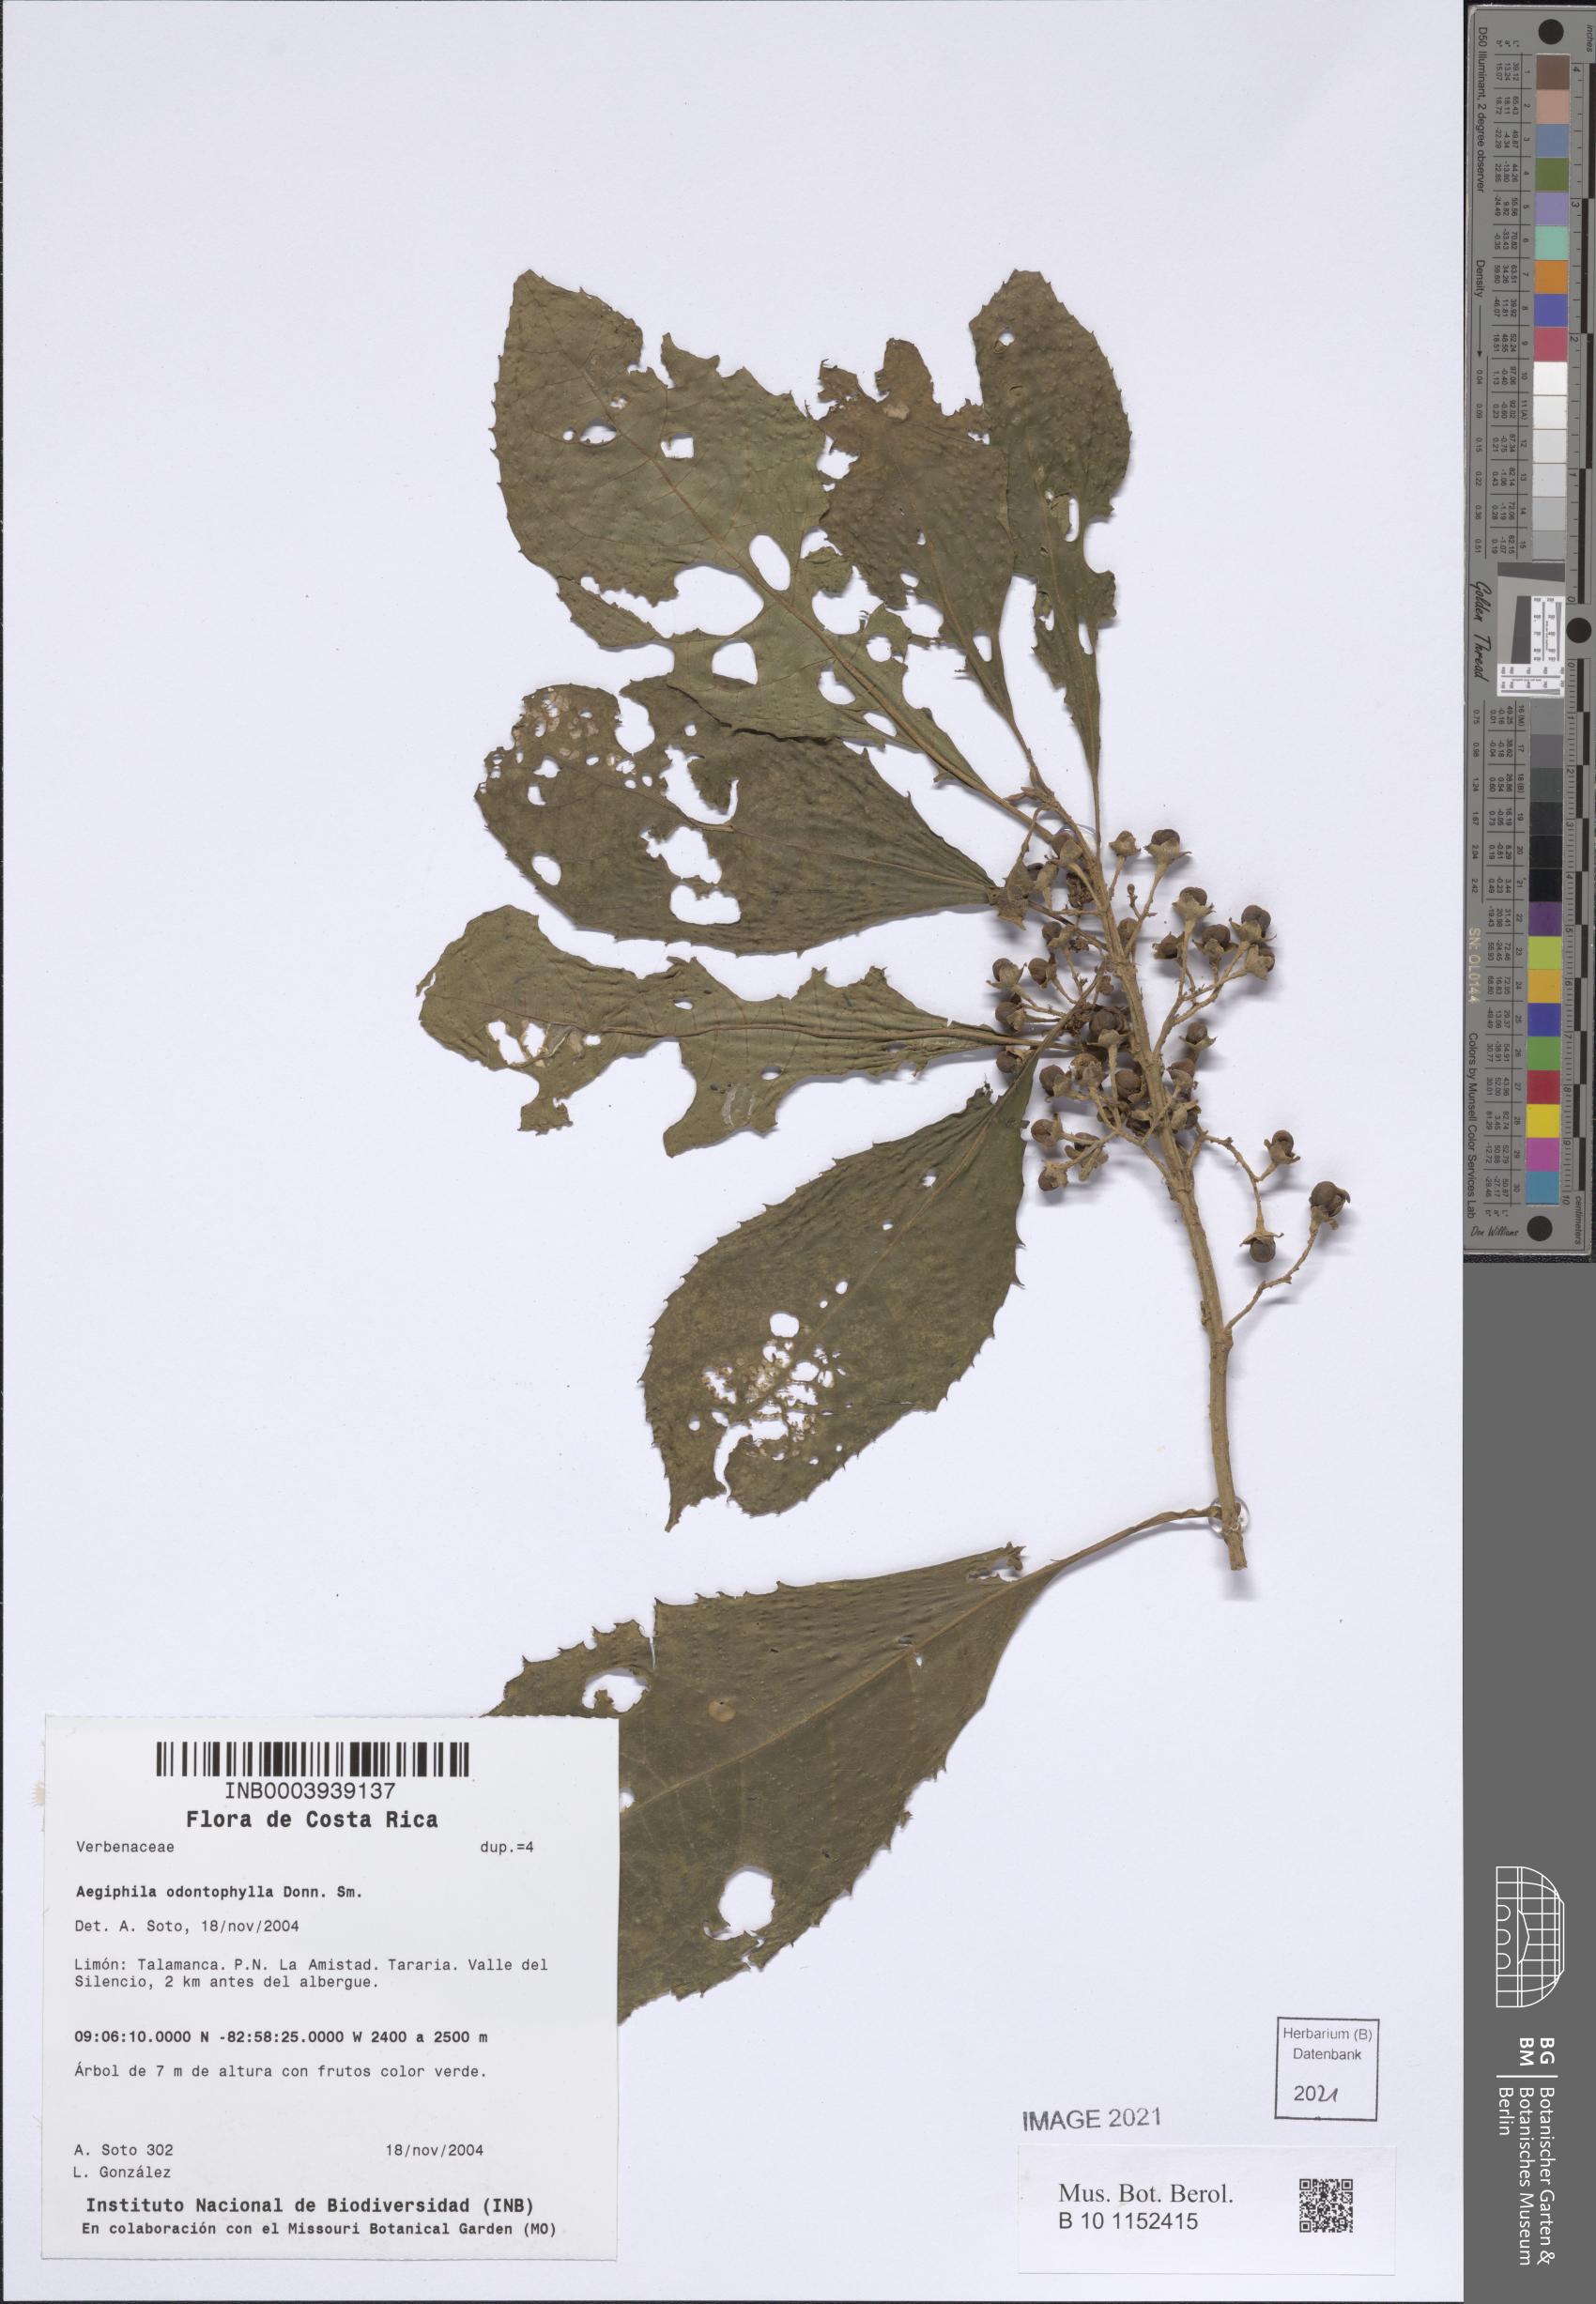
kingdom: Plantae
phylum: Tracheophyta
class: Magnoliopsida
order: Lamiales
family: Lamiaceae
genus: Aegiphila
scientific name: Aegiphila odontophylla
